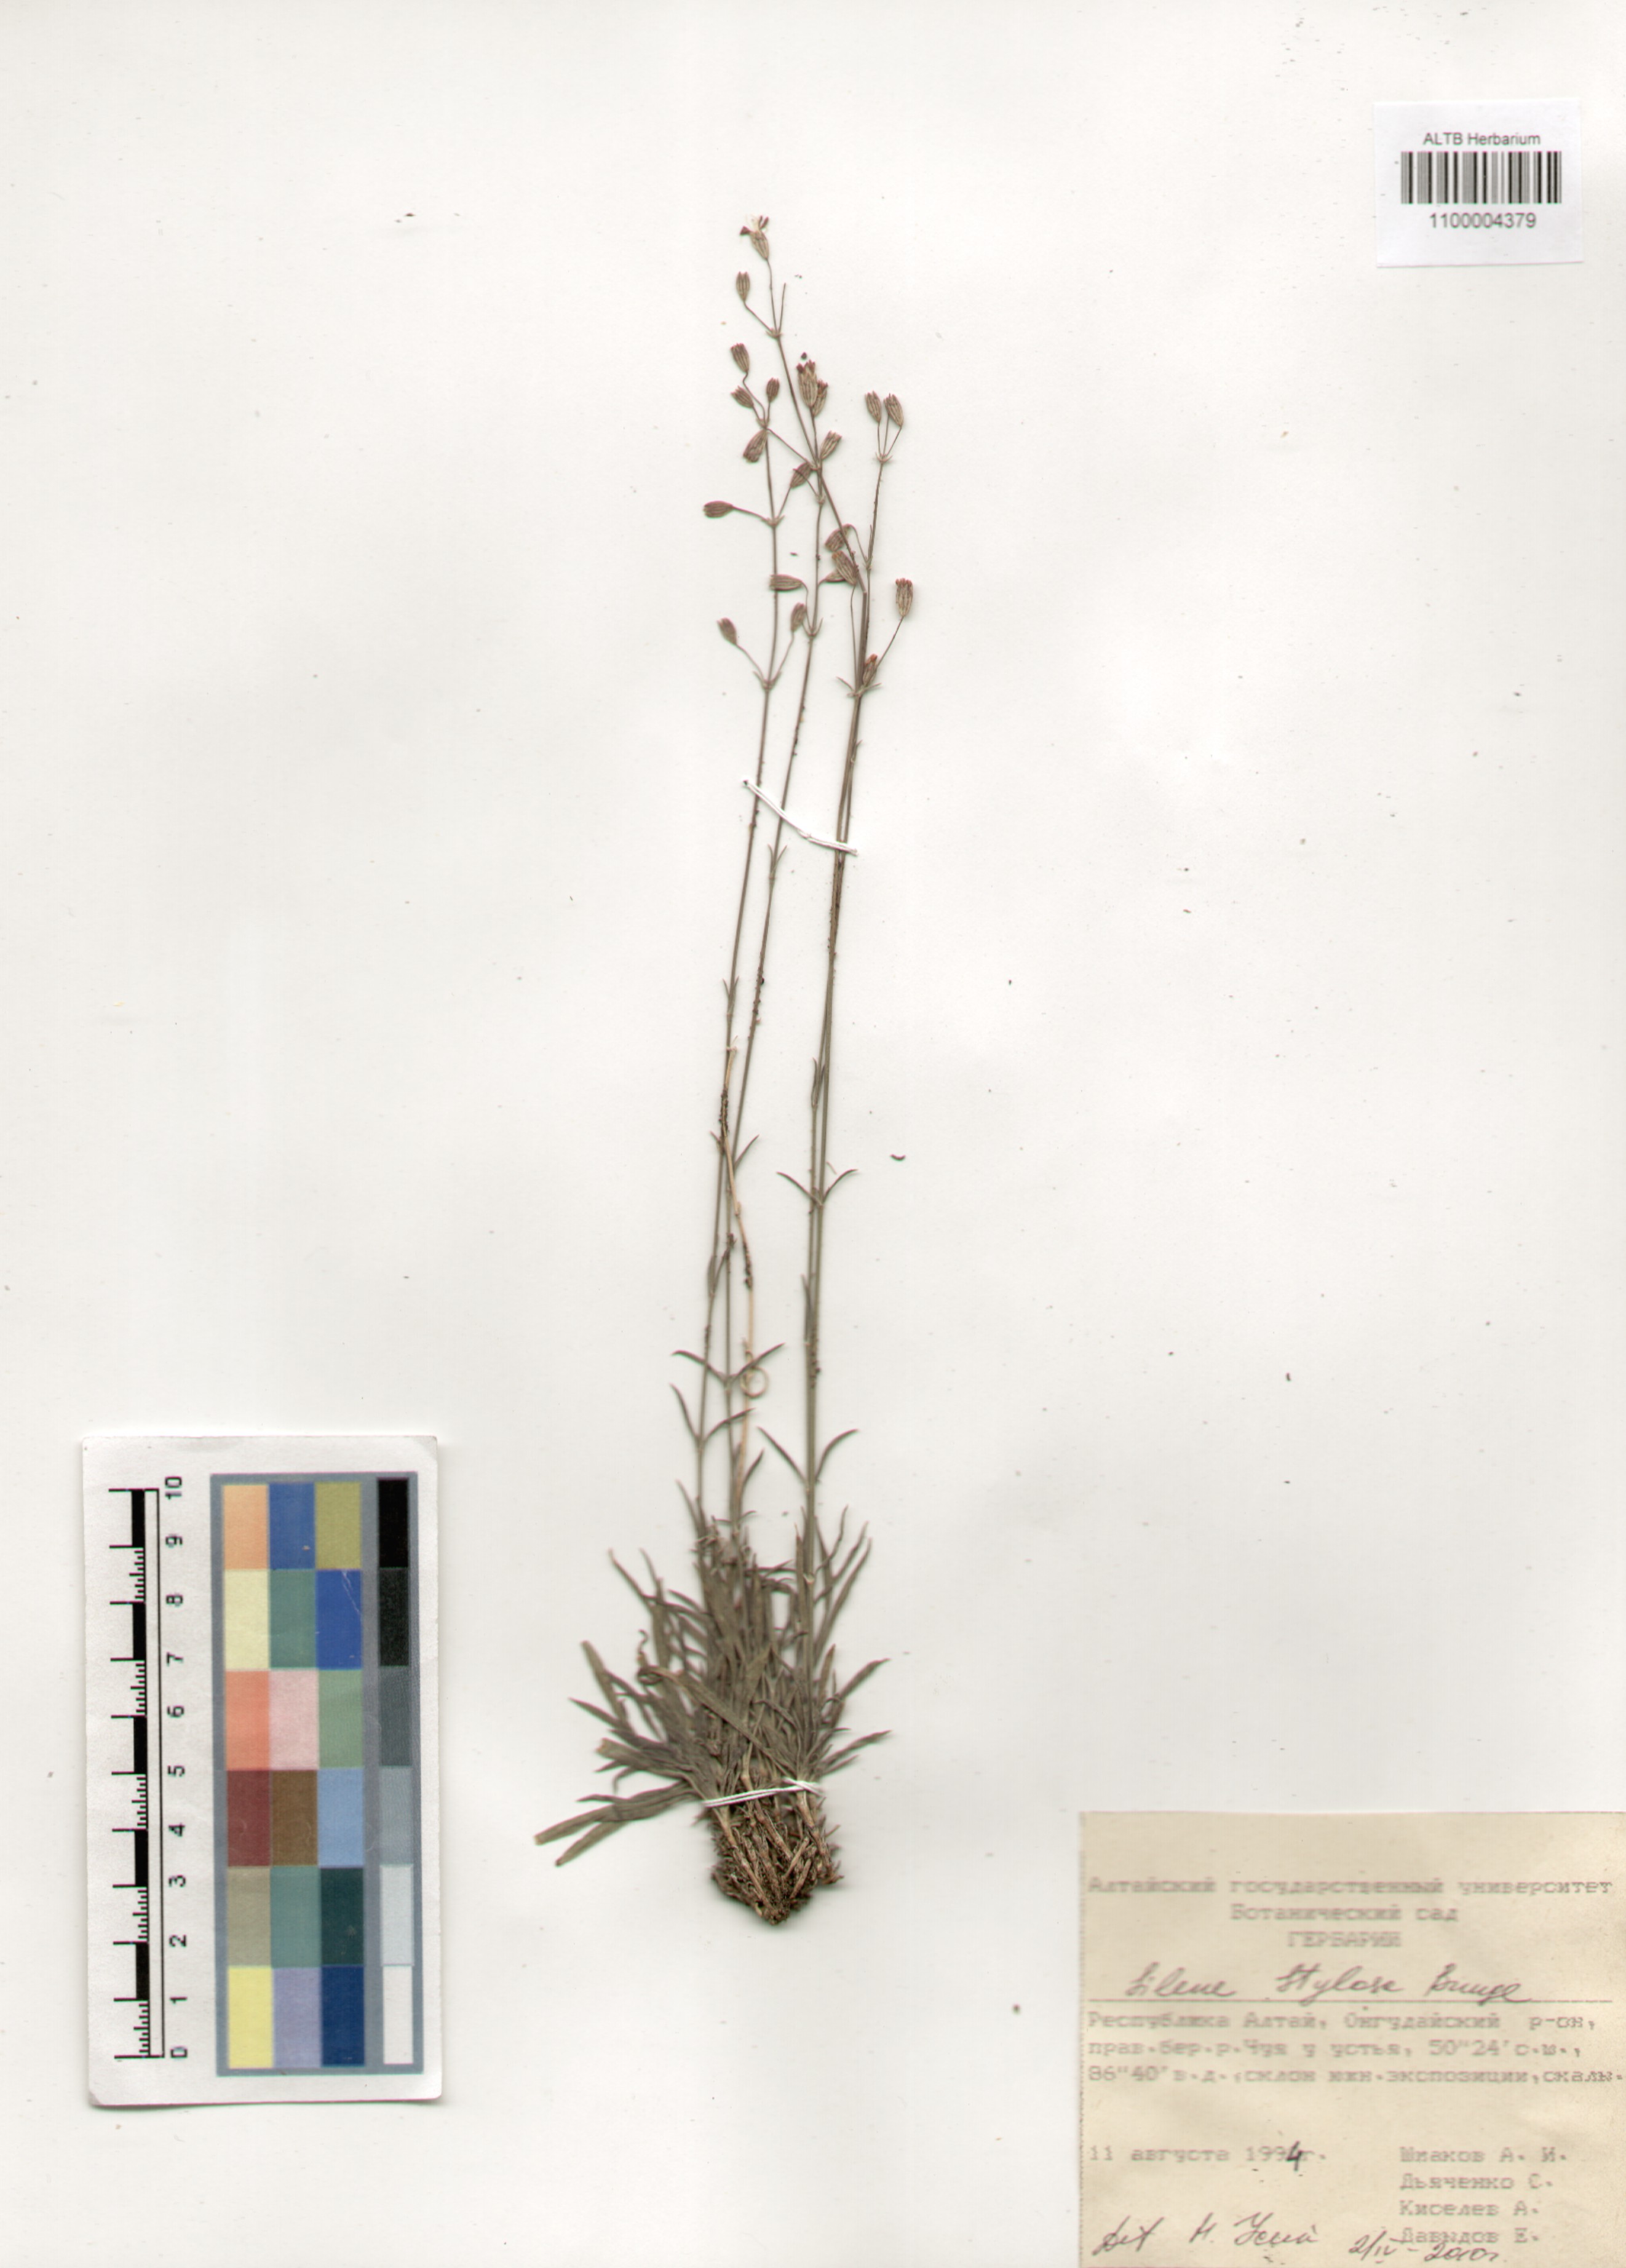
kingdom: Plantae
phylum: Tracheophyta
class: Magnoliopsida
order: Caryophyllales
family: Caryophyllaceae
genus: Silene
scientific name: Silene graminifolia
